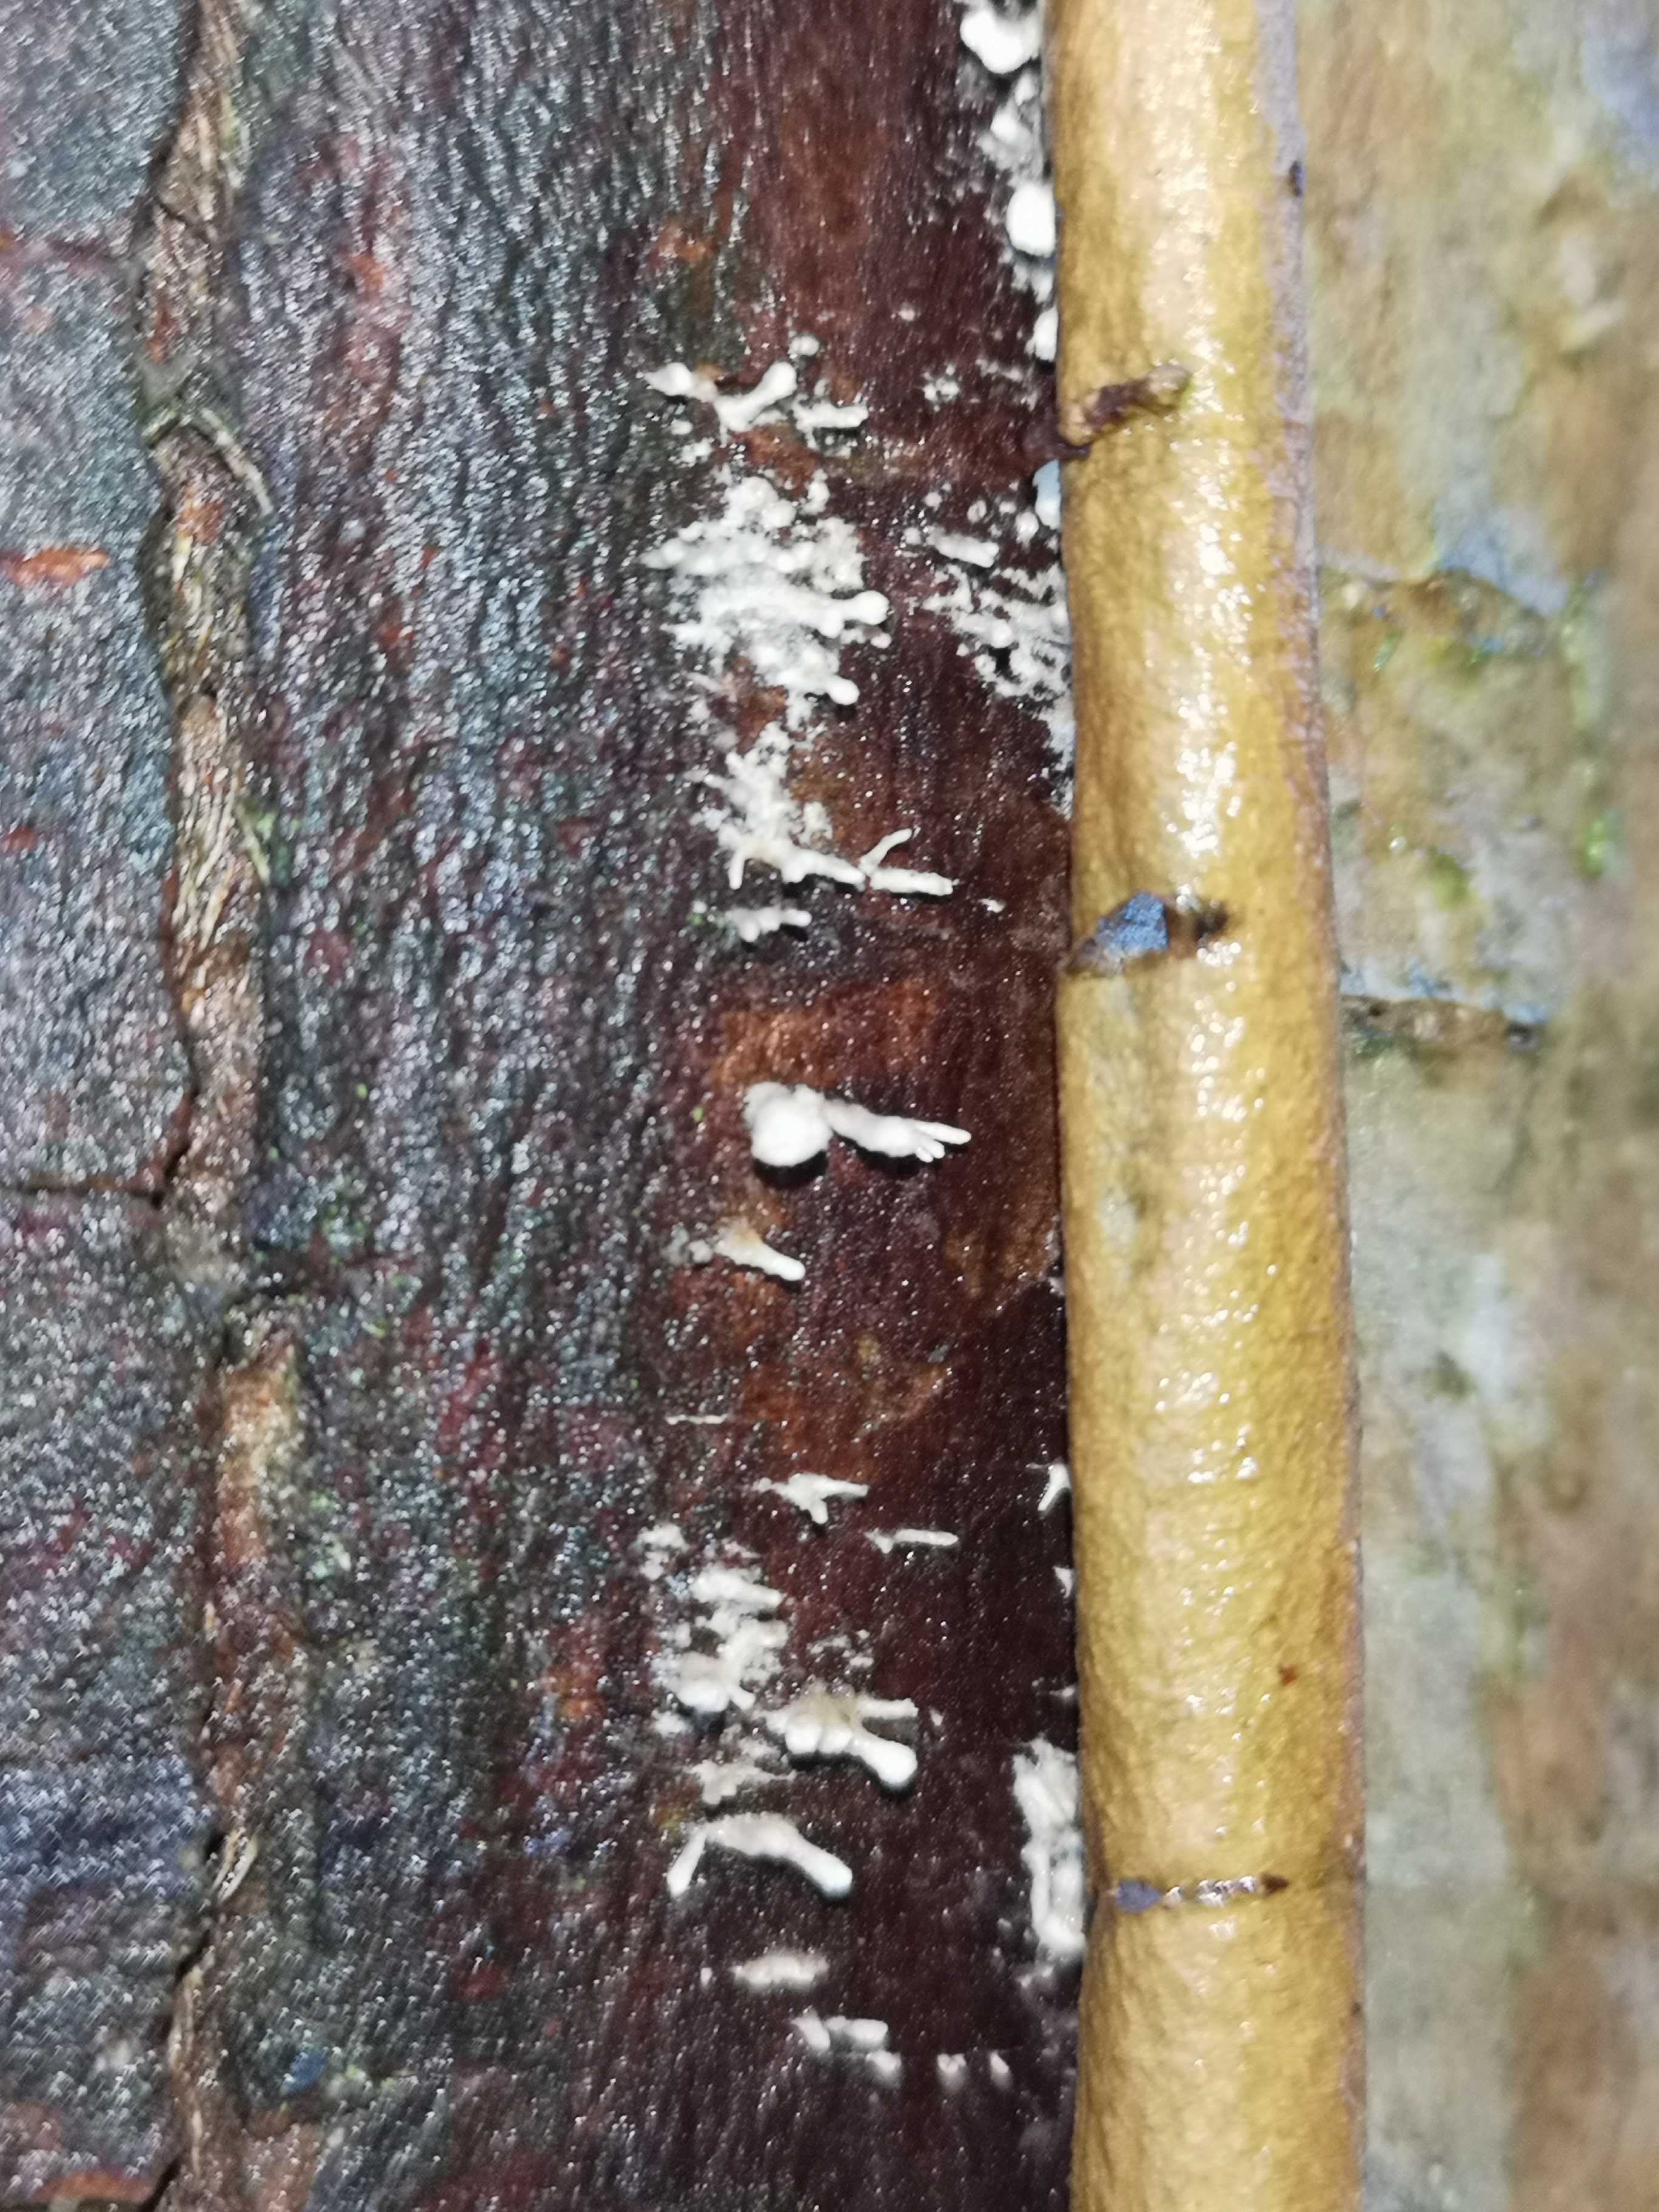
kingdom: Fungi
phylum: Basidiomycota
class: Atractiellomycetes
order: Atractiellales
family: Phleogenaceae
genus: Phleogena
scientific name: Phleogena faginea
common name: pudderkølle
